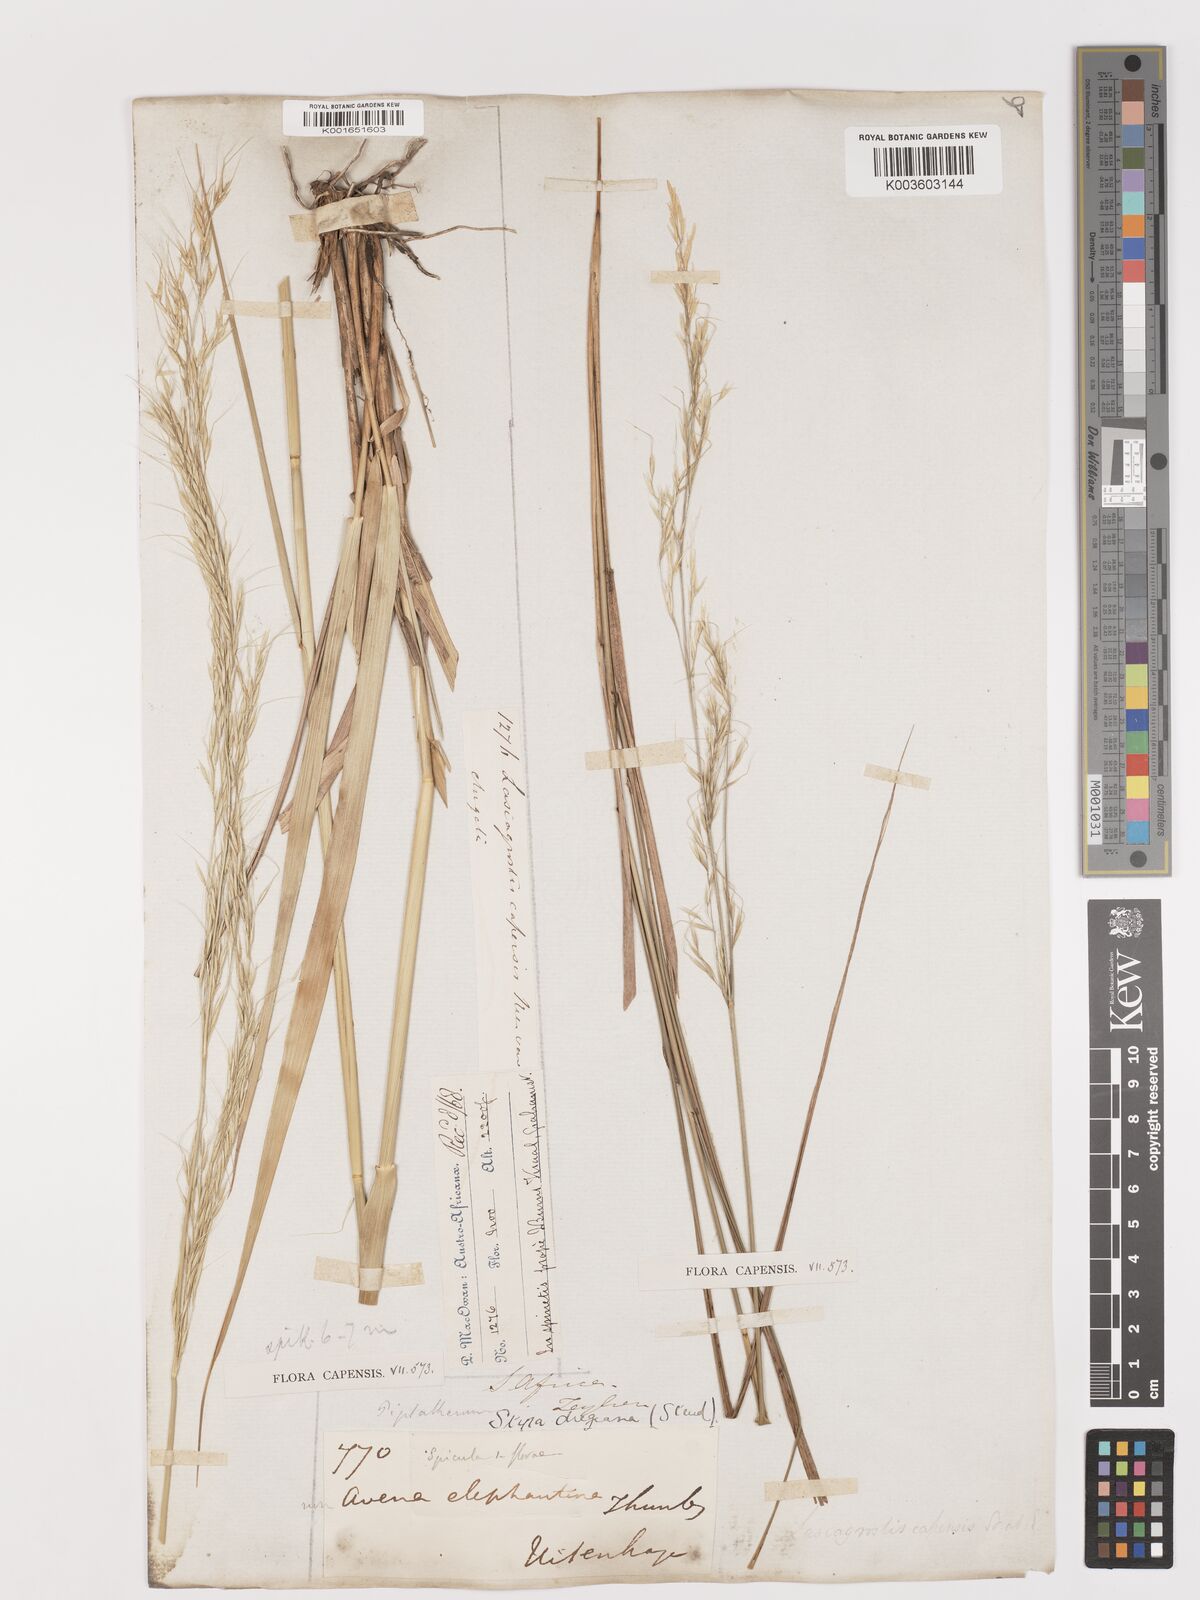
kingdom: Plantae
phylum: Tracheophyta
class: Liliopsida
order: Poales
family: Poaceae
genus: Stipa
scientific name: Stipa dregeana
